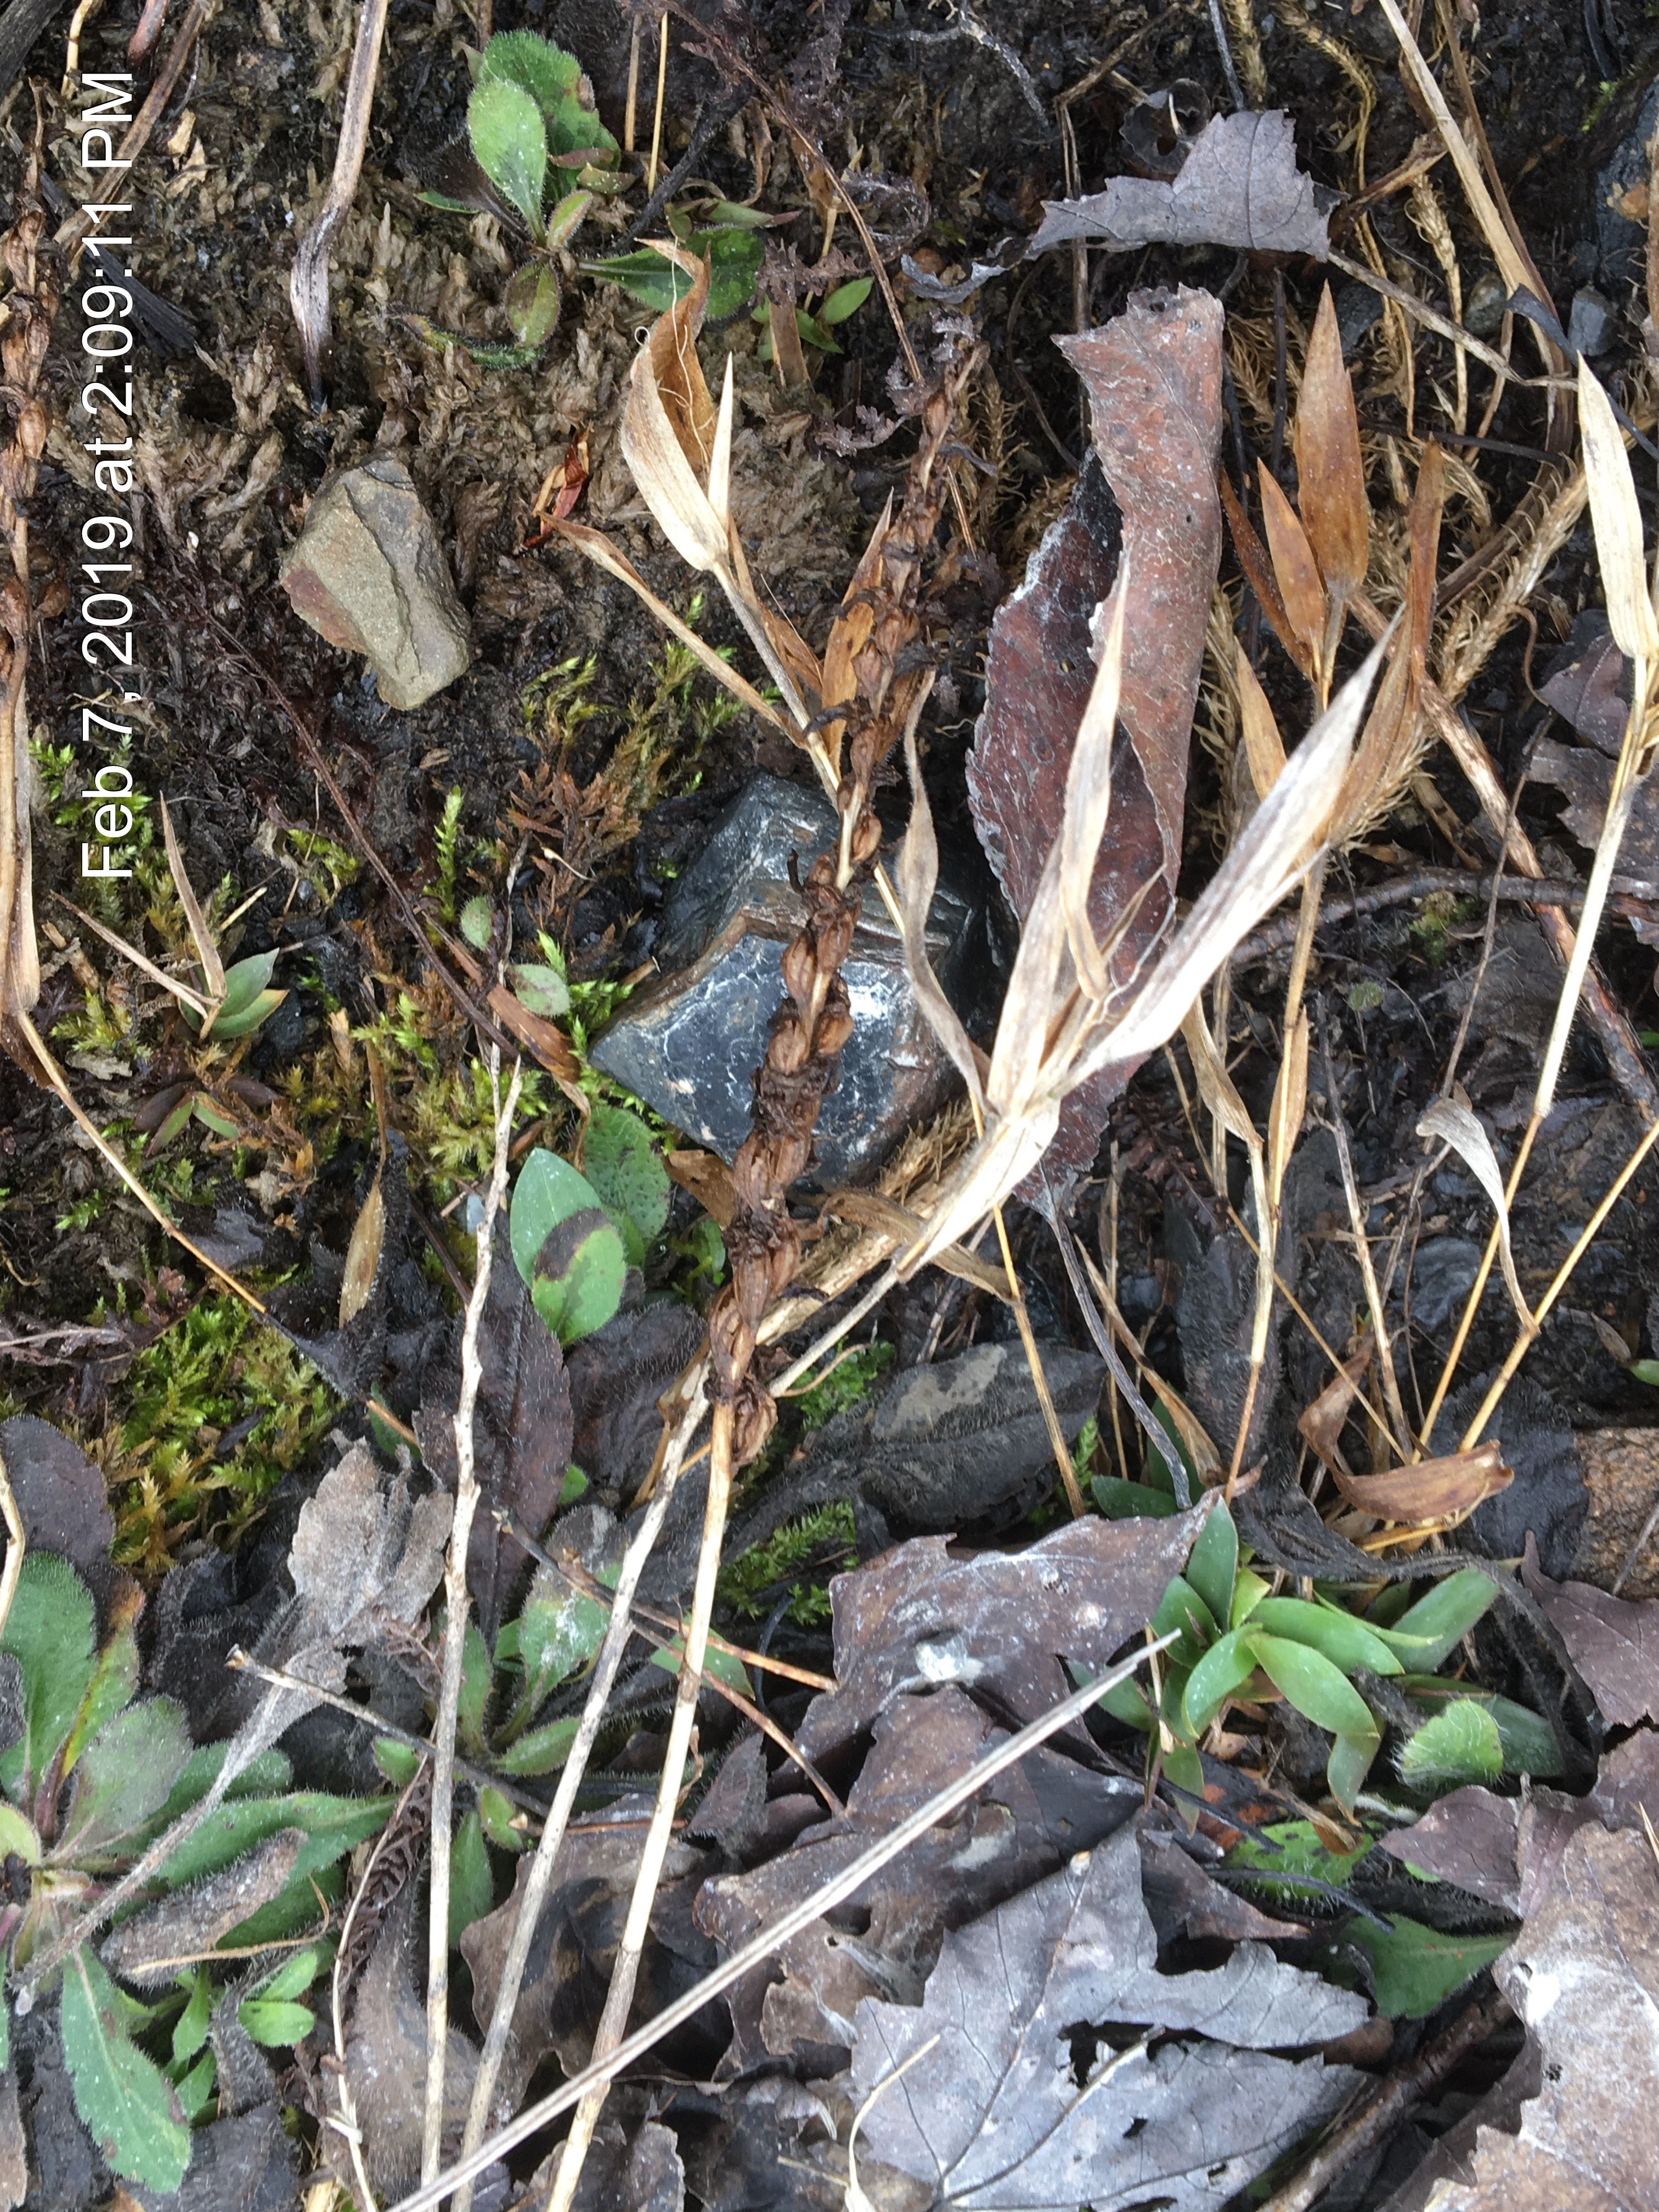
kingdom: Plantae
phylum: Tracheophyta
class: Liliopsida
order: Asparagales
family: Orchidaceae
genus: Spiranthes
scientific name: Spiranthes casei
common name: Case's lady's tresses
